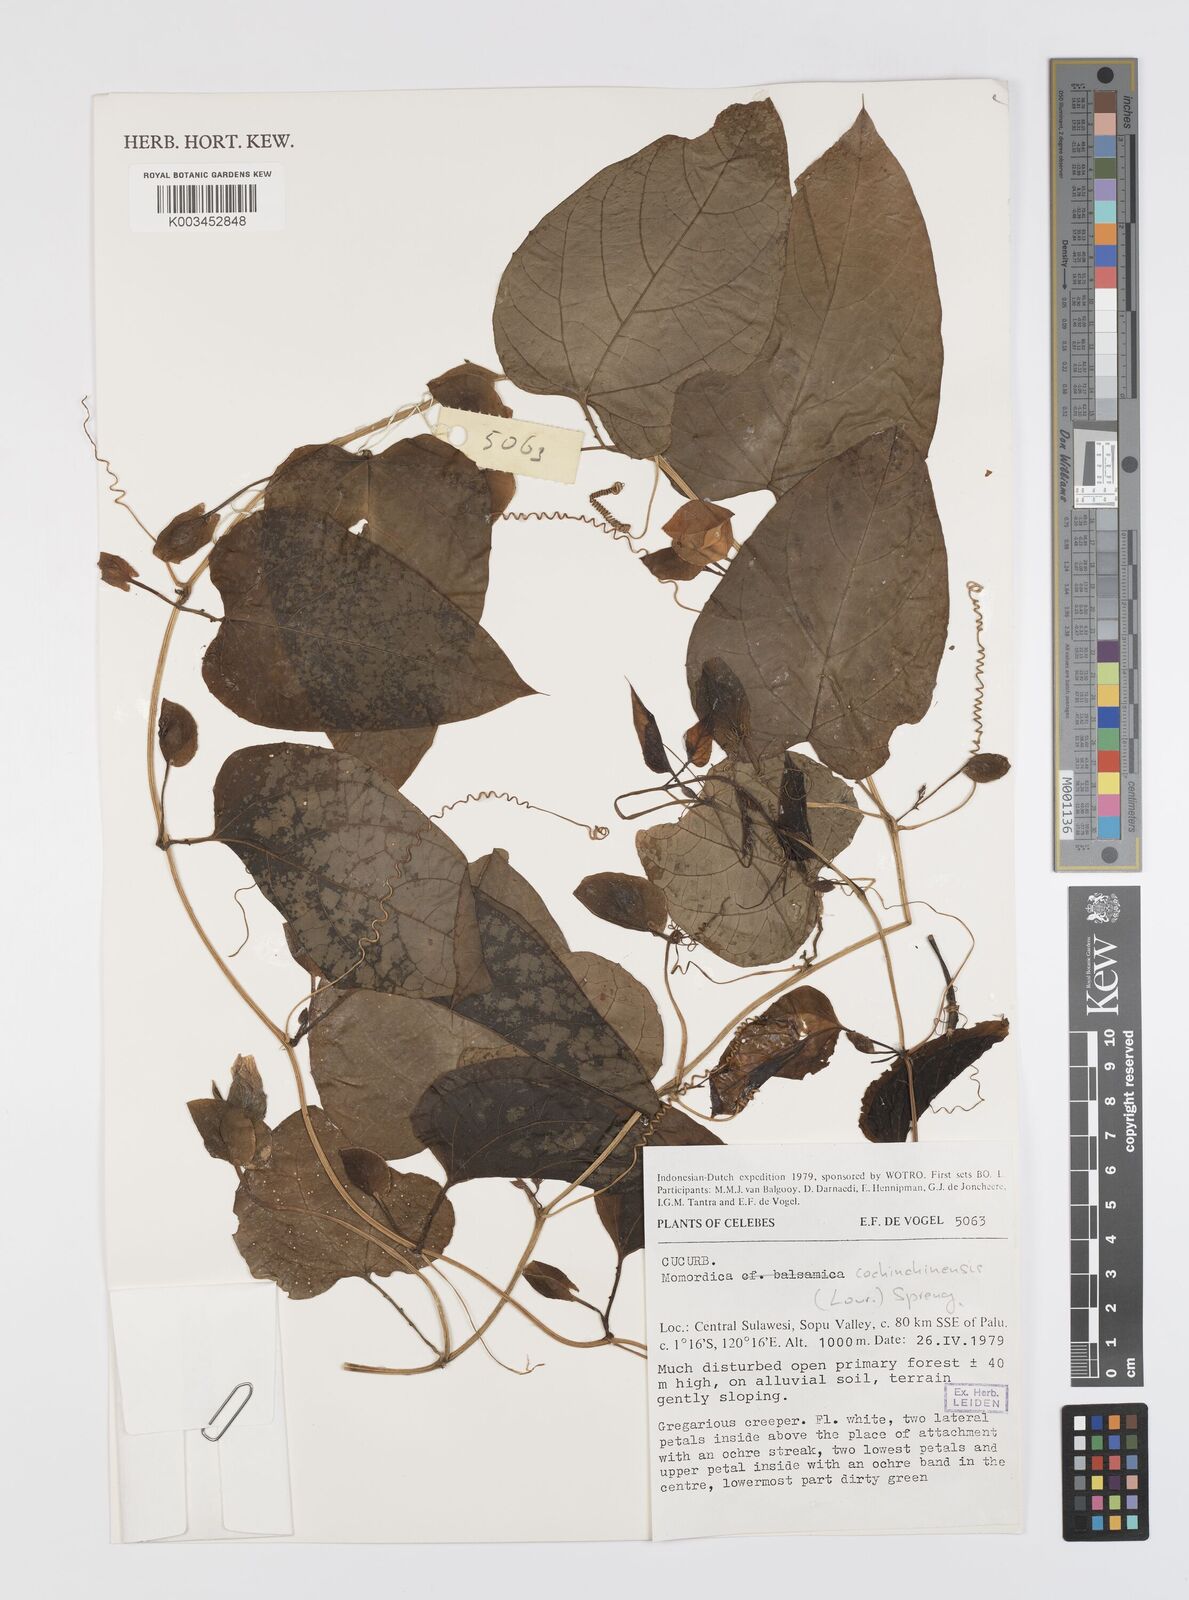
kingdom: Plantae
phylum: Tracheophyta
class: Magnoliopsida
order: Cucurbitales
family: Cucurbitaceae
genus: Momordica
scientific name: Momordica cochinchinensis
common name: Chinese bitter-cucumber
